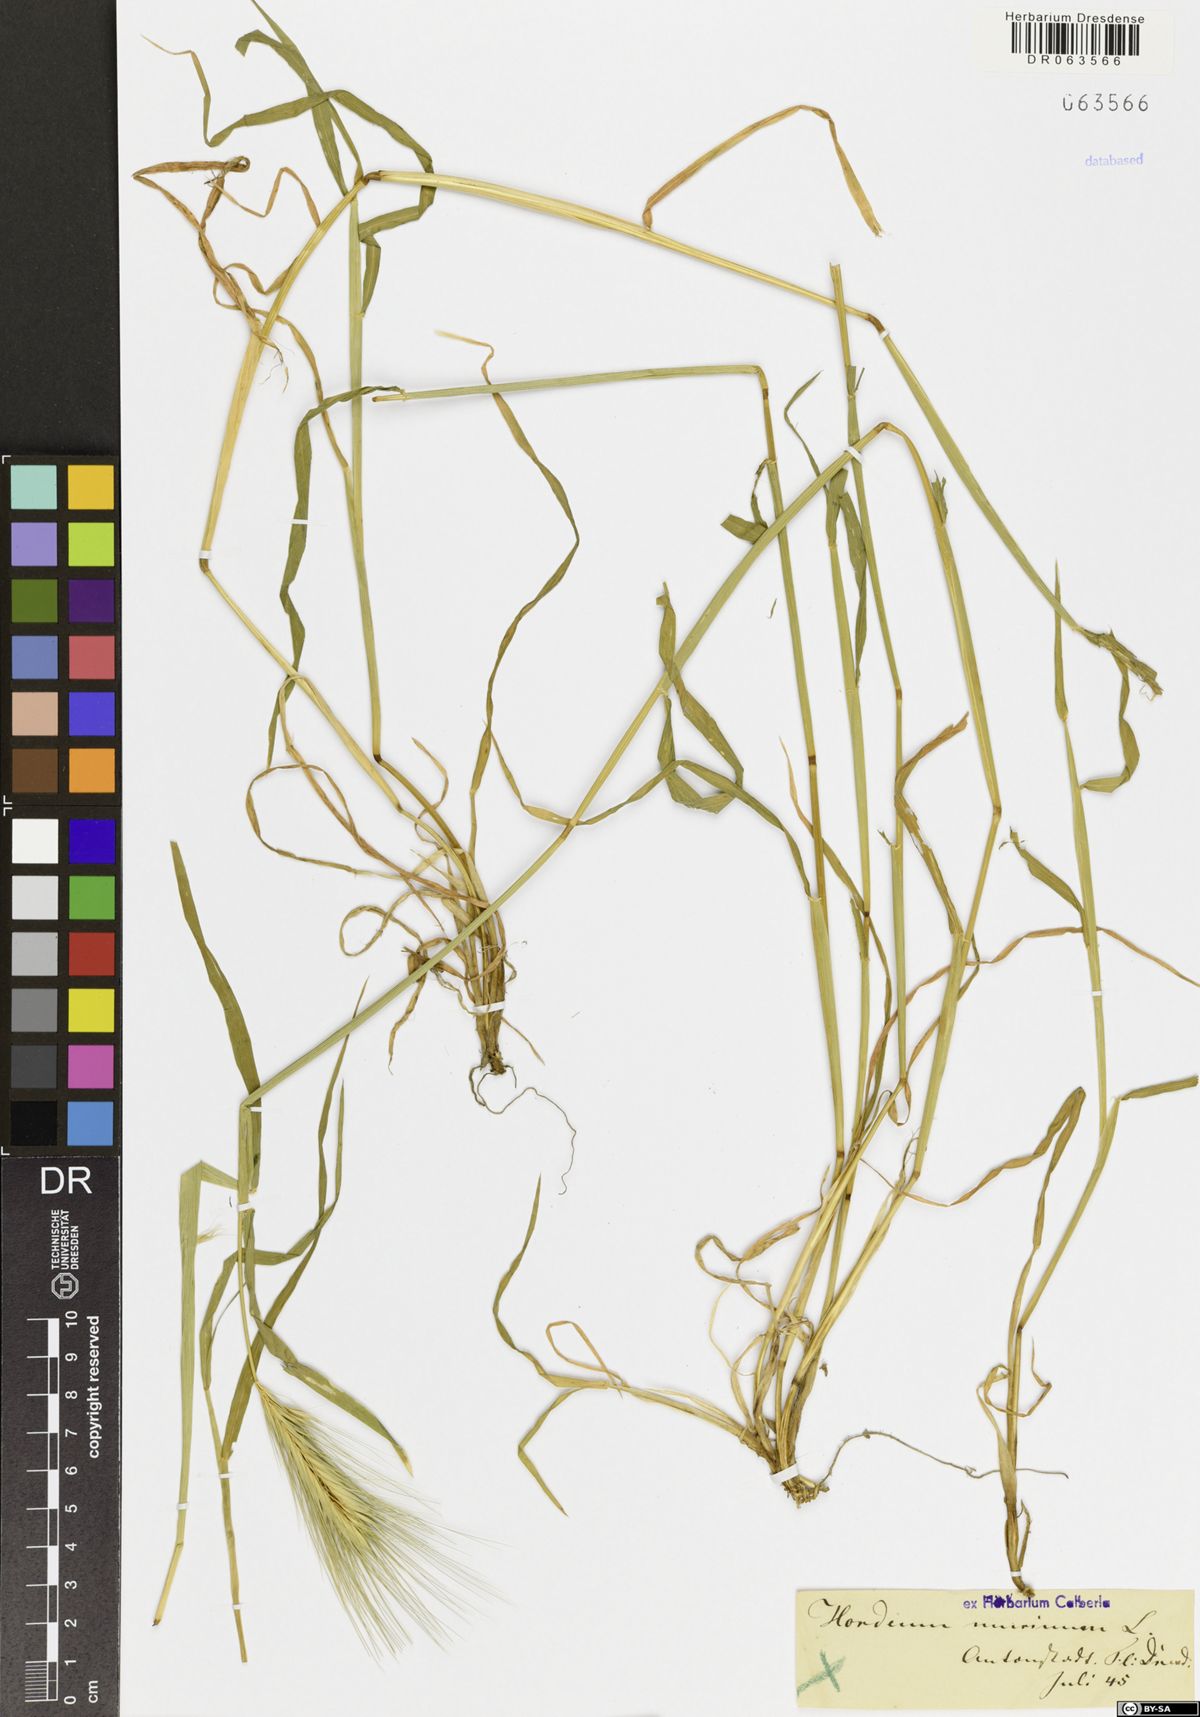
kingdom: Plantae
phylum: Tracheophyta
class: Liliopsida
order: Poales
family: Poaceae
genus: Hordeum
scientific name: Hordeum murinum
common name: Wall barley
